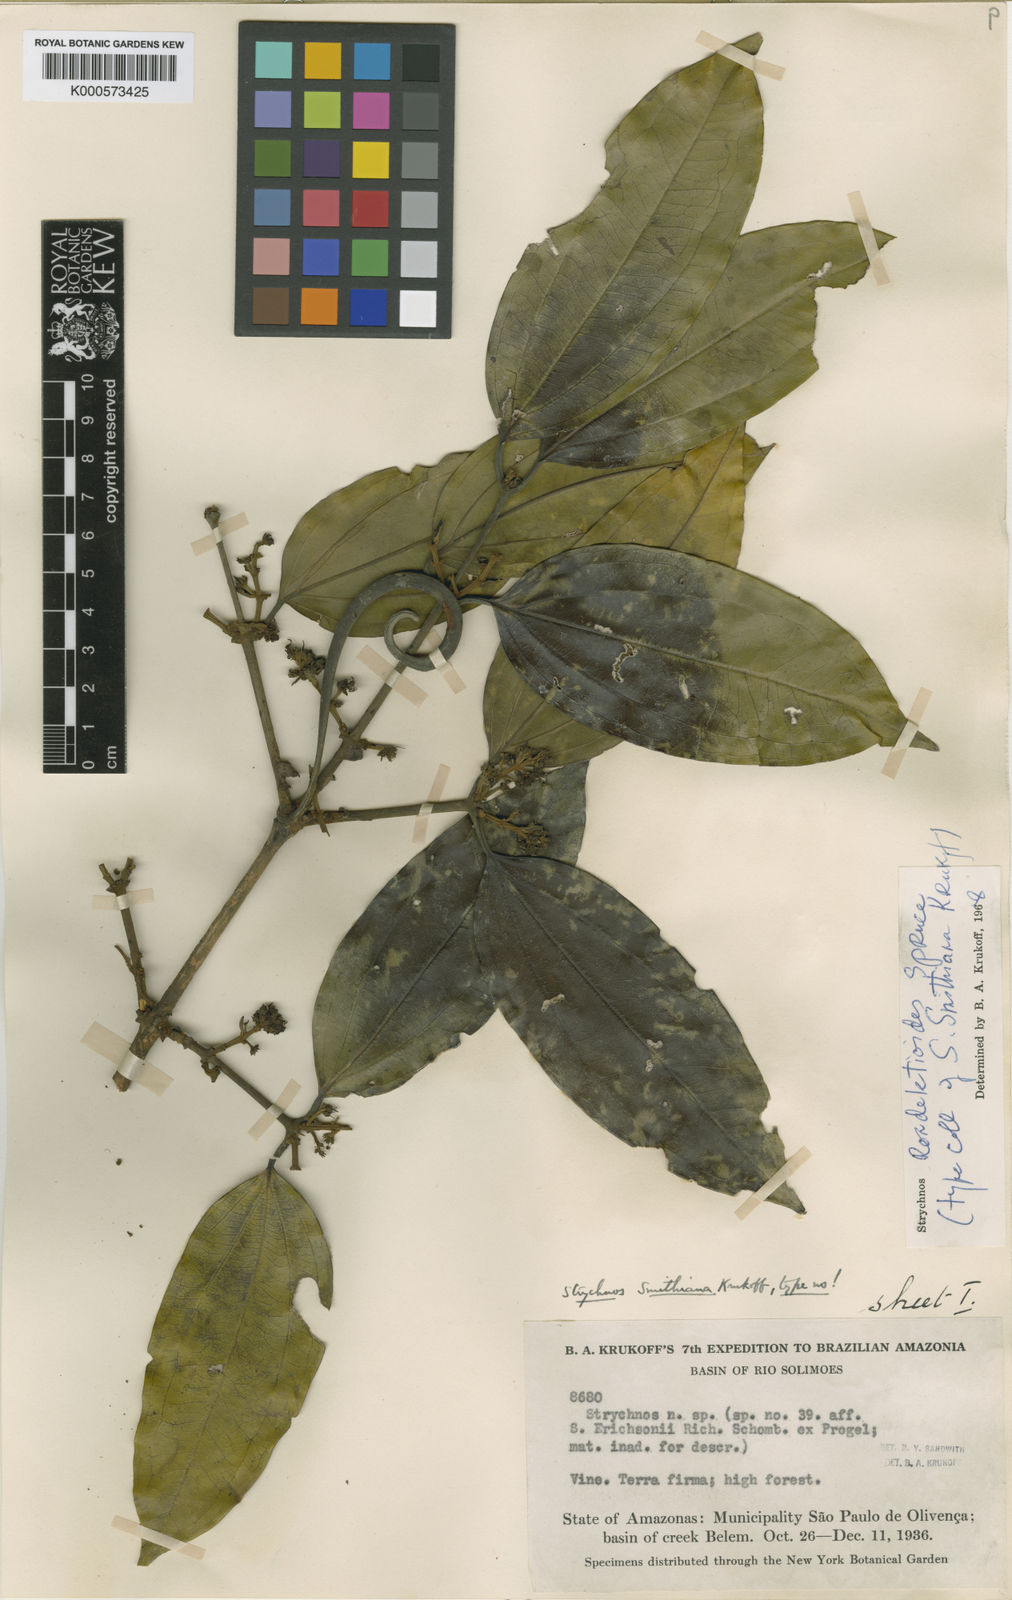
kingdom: Plantae
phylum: Tracheophyta
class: Magnoliopsida
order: Gentianales
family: Loganiaceae
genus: Strychnos
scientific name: Strychnos rondeletioides
